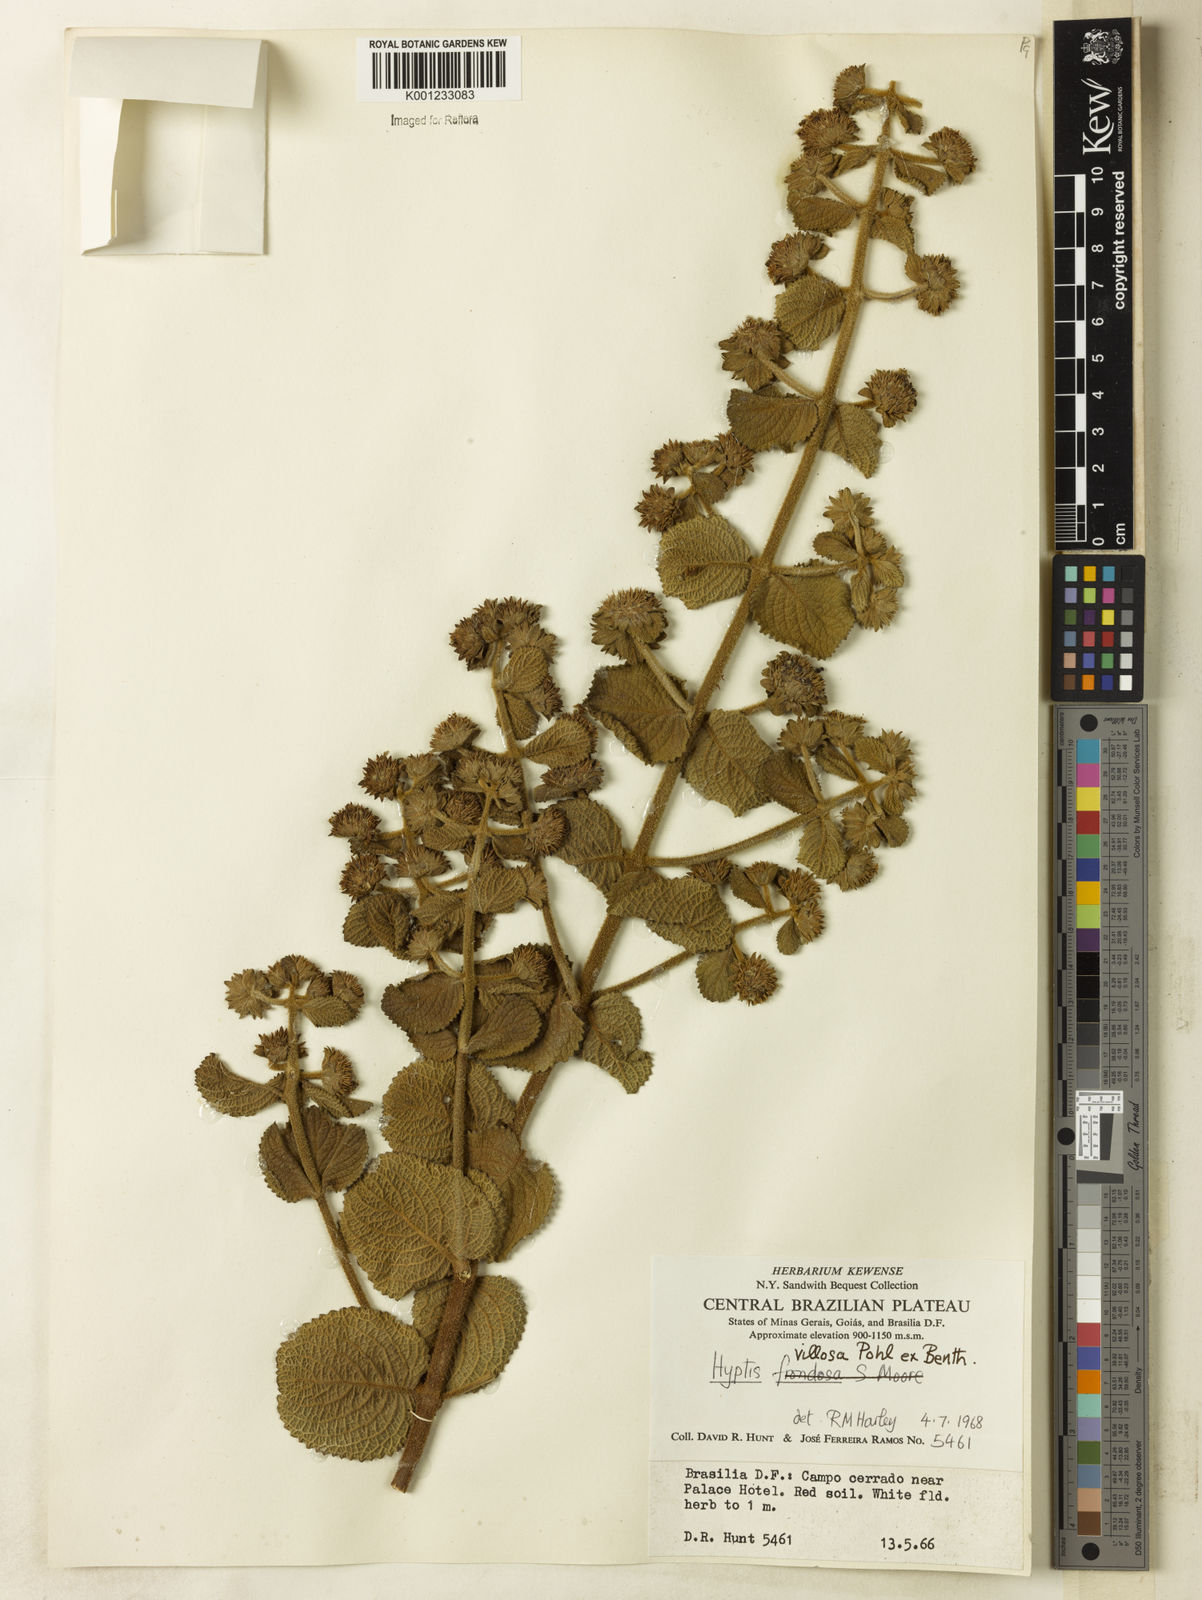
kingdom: Plantae
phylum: Tracheophyta
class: Magnoliopsida
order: Lamiales
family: Lamiaceae
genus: Hyptis
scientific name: Hyptis villosa
